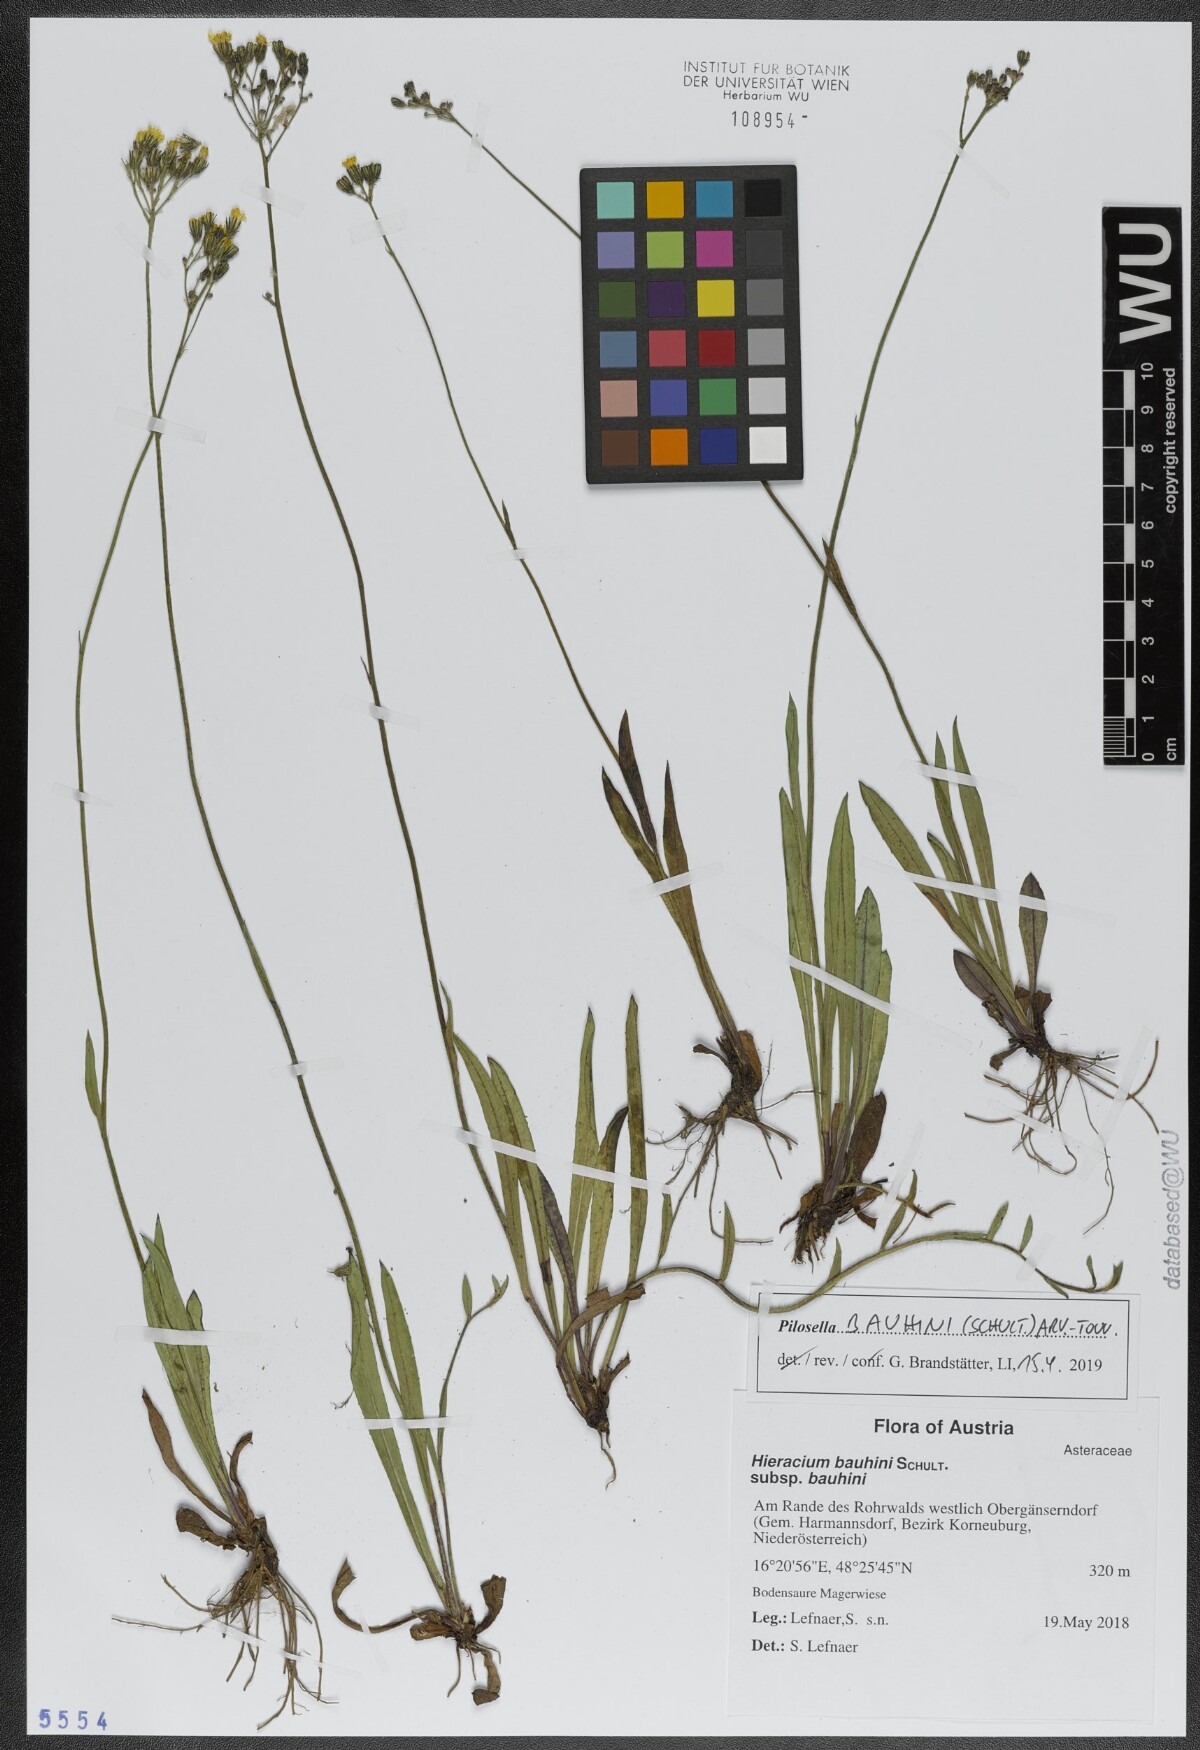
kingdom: Plantae
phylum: Tracheophyta
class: Magnoliopsida
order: Asterales
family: Asteraceae
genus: Pilosella
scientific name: Pilosella bauhini
